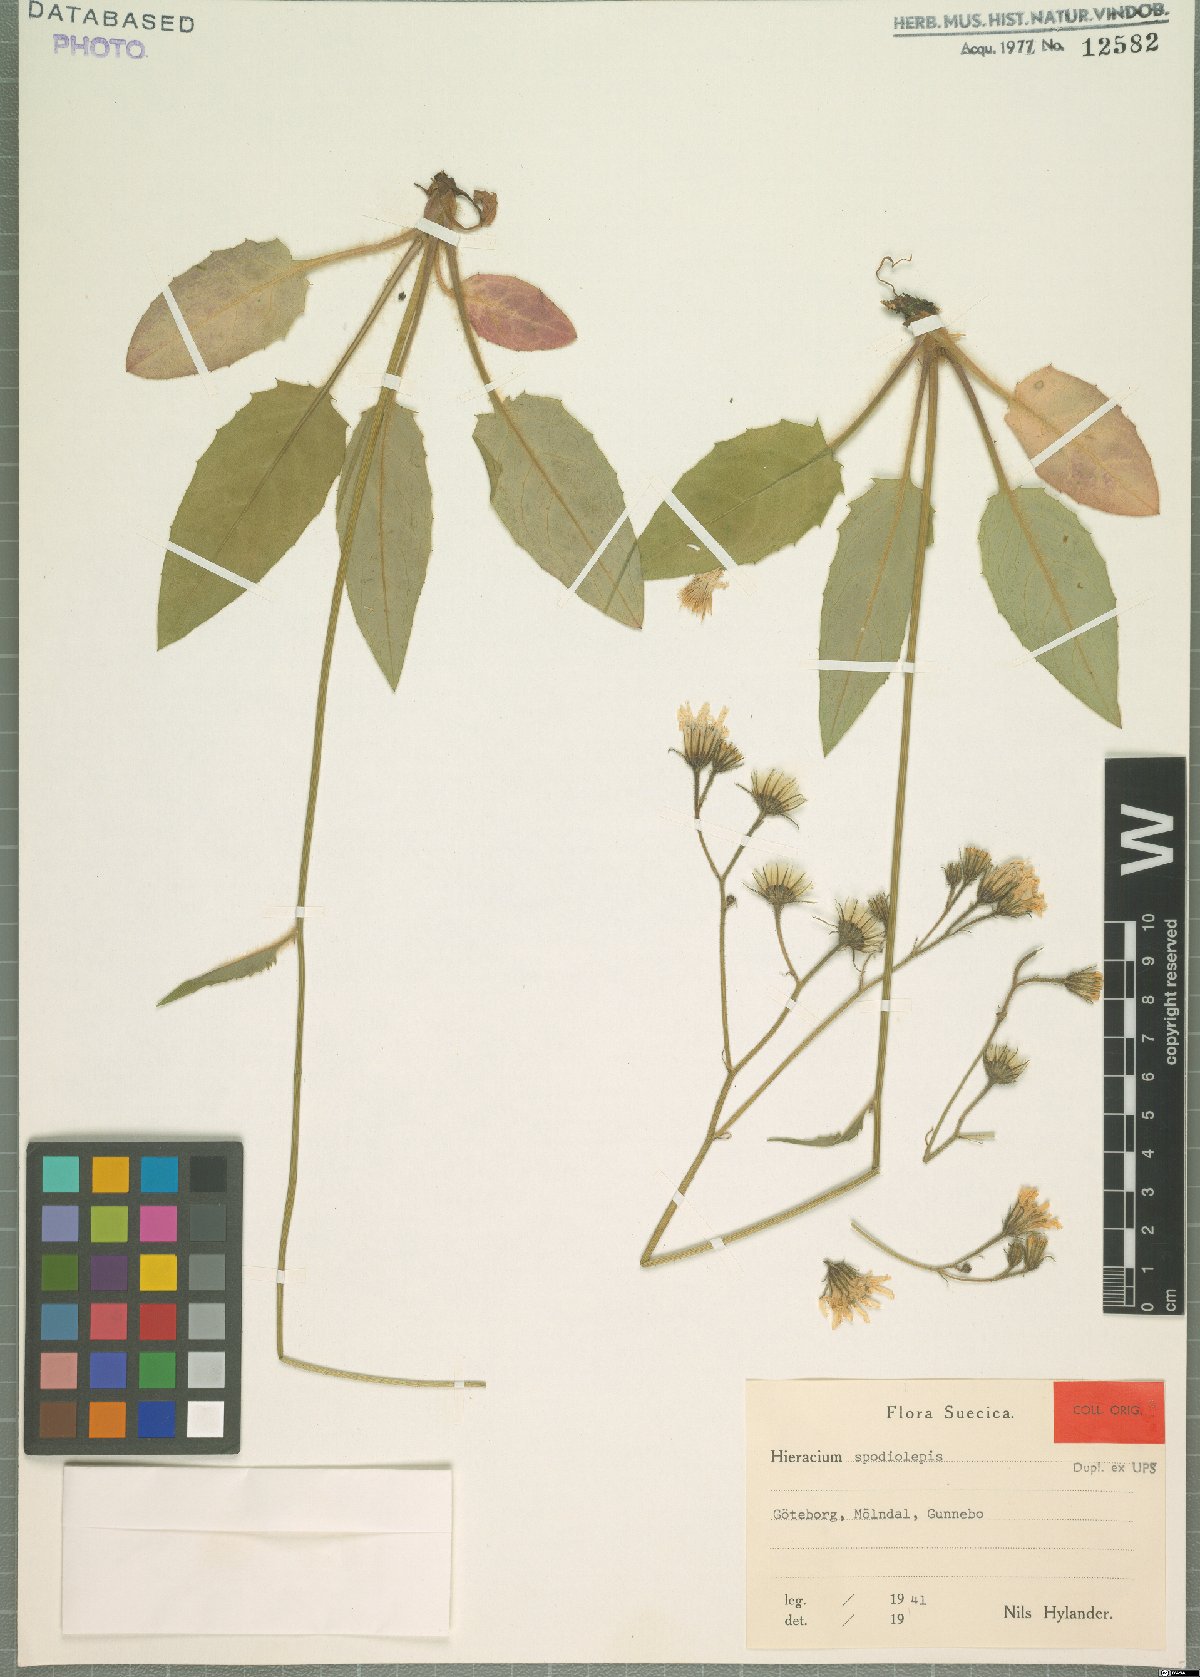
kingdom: Plantae
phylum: Tracheophyta
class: Magnoliopsida
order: Asterales
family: Asteraceae
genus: Hieracium
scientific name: Hieracium spodiolepis
